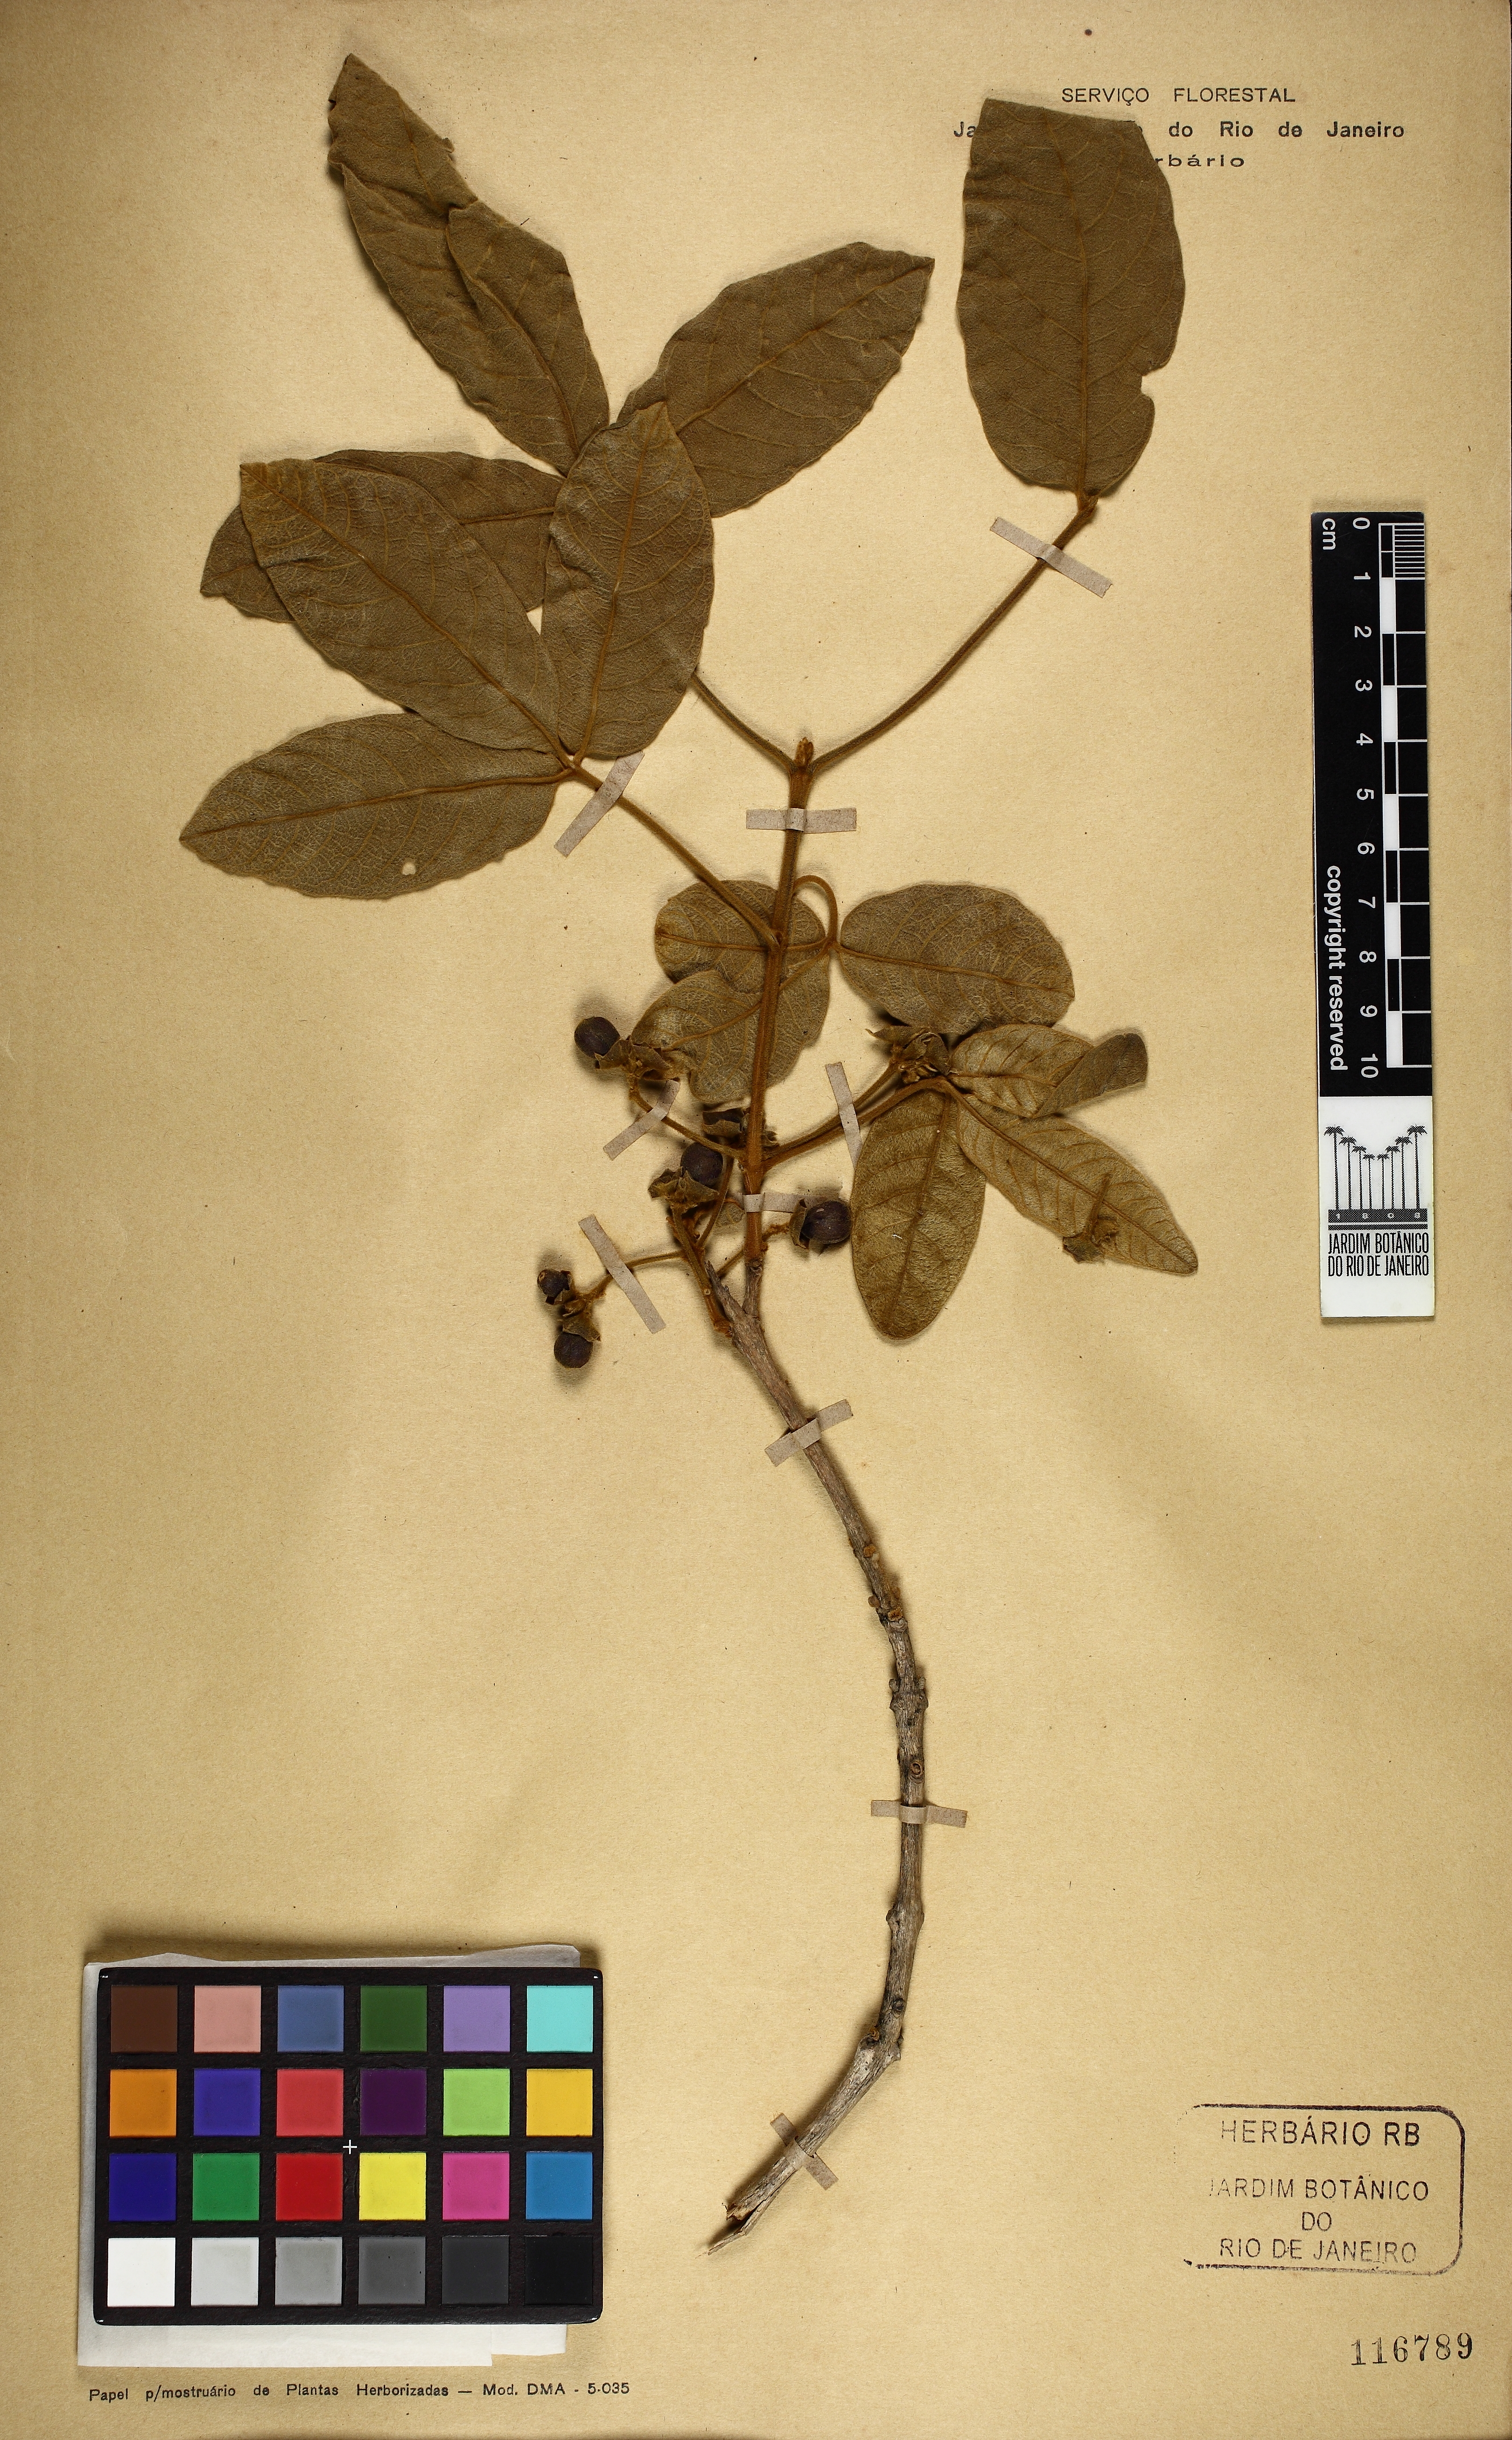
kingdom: Plantae
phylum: Tracheophyta
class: Magnoliopsida
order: Lamiales
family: Lamiaceae
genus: Vitex
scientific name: Vitex
